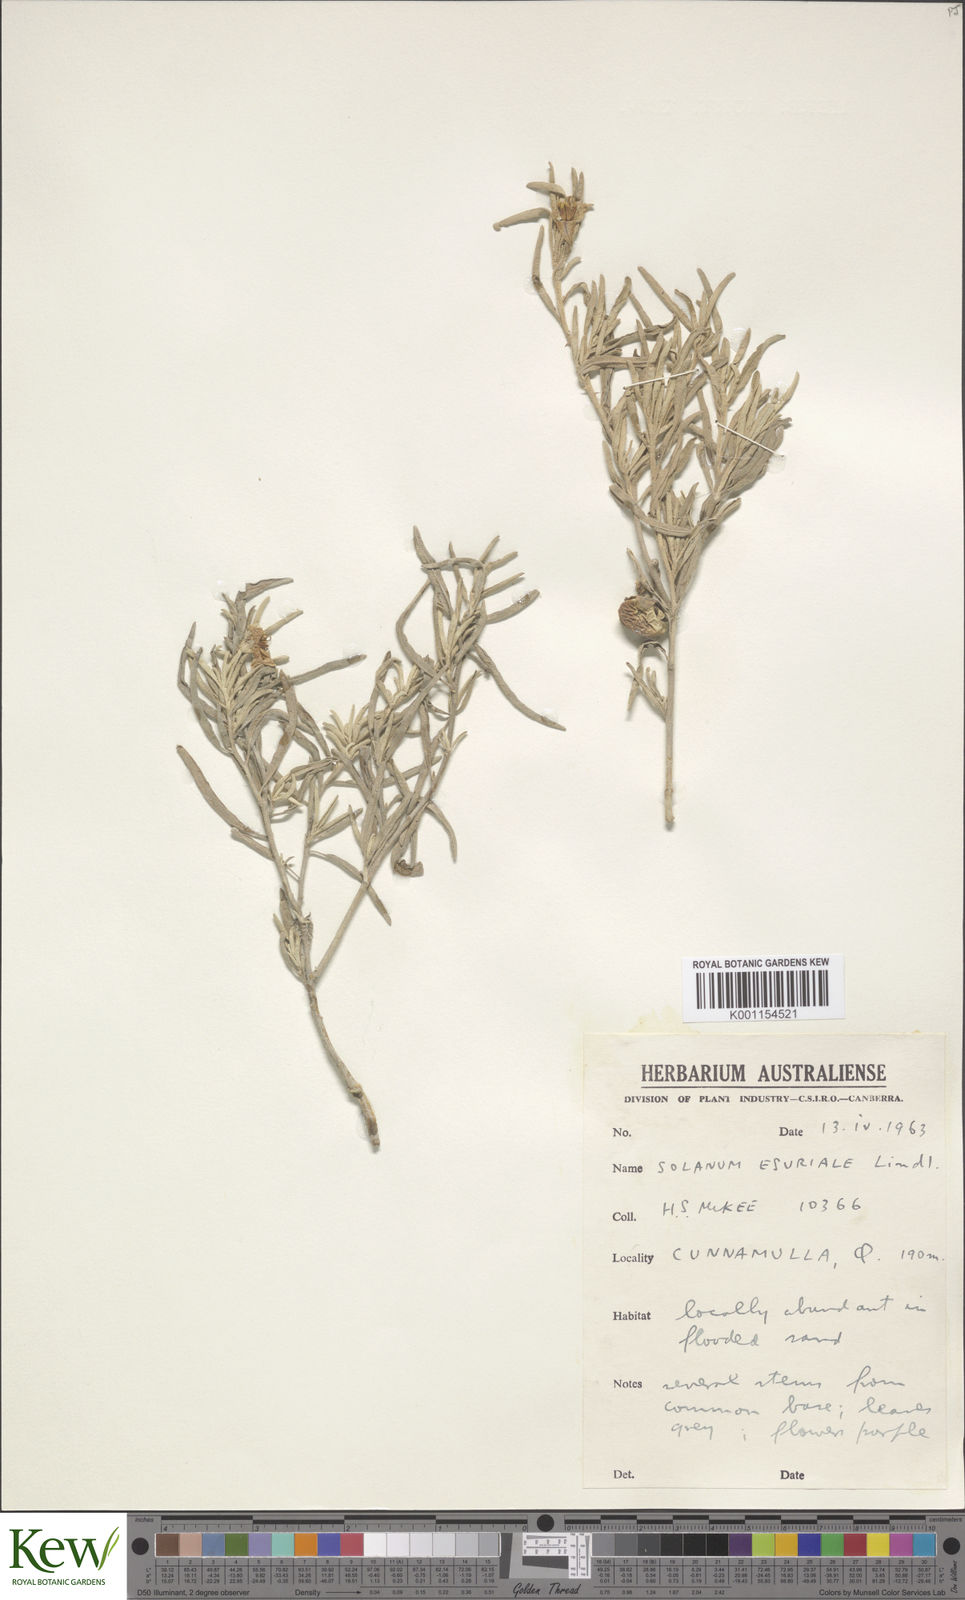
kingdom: Plantae
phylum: Tracheophyta
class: Magnoliopsida
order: Solanales
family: Solanaceae
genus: Solanum
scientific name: Solanum esuriale
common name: Wild tomato
